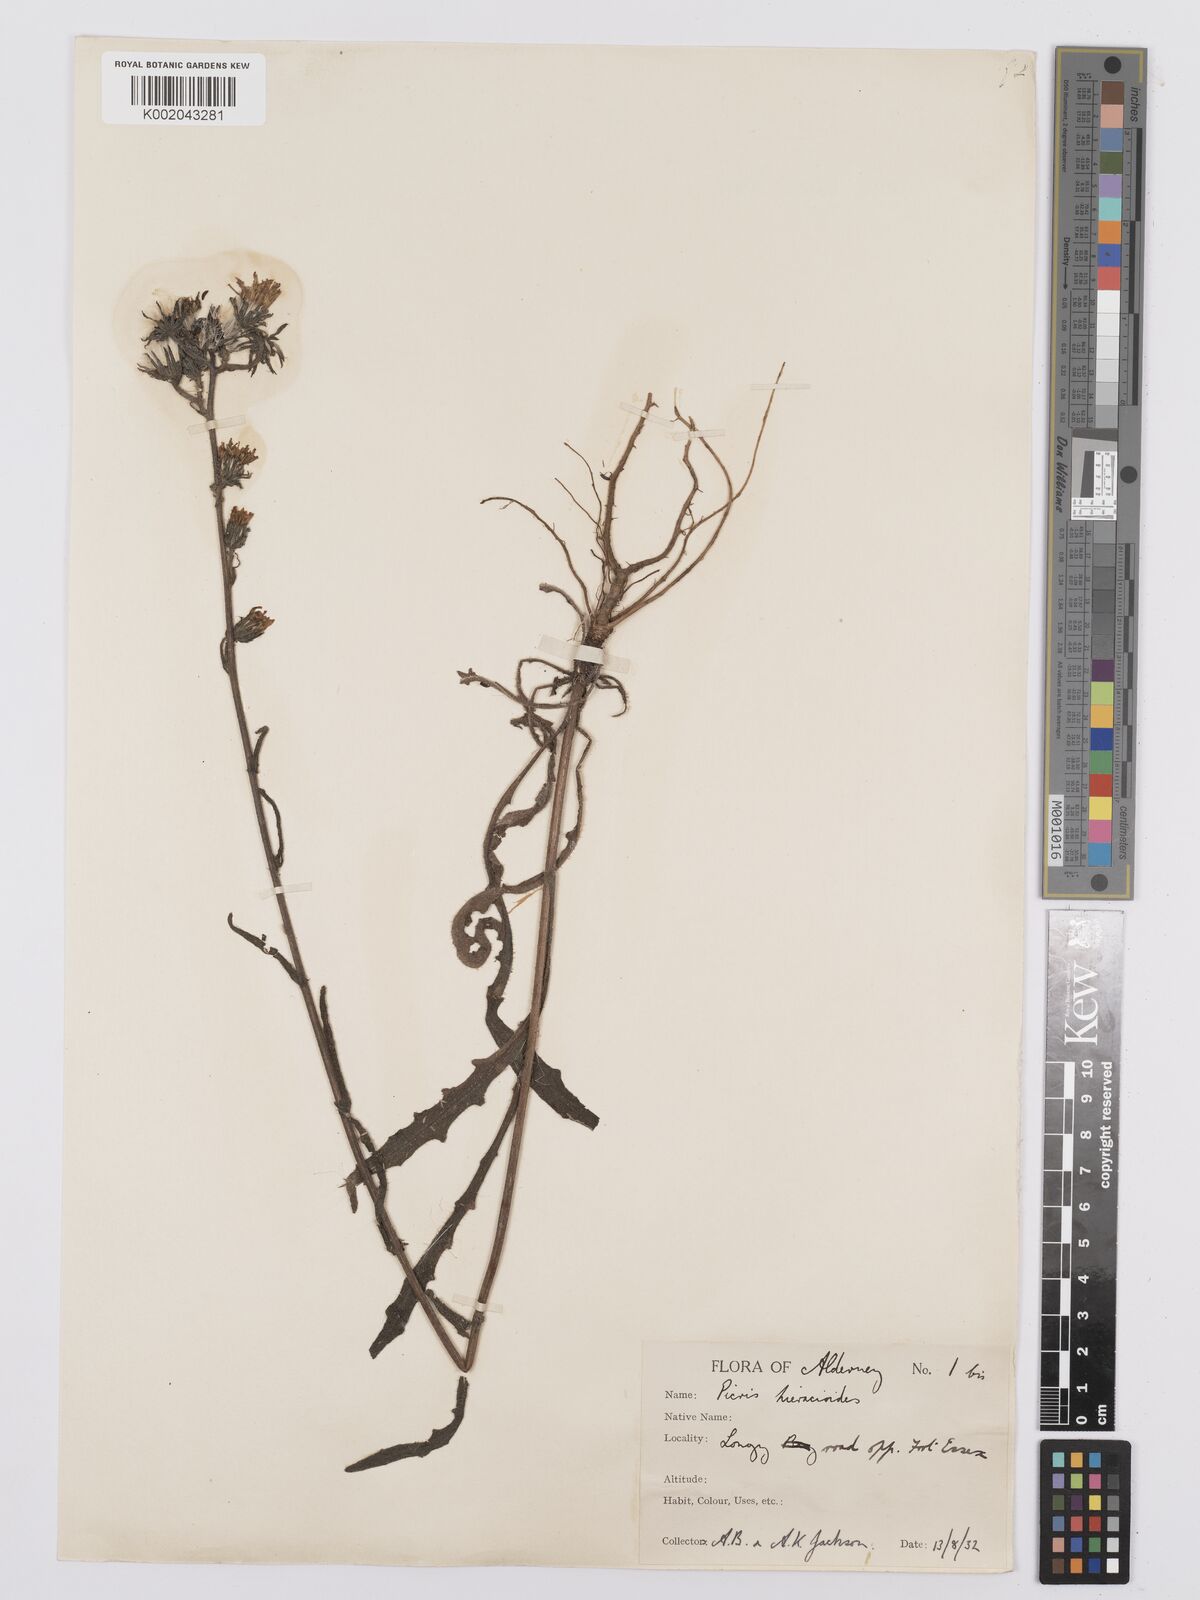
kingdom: Plantae
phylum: Tracheophyta
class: Magnoliopsida
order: Asterales
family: Asteraceae
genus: Picris
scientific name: Picris hieracioides
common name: Hawkweed oxtongue
